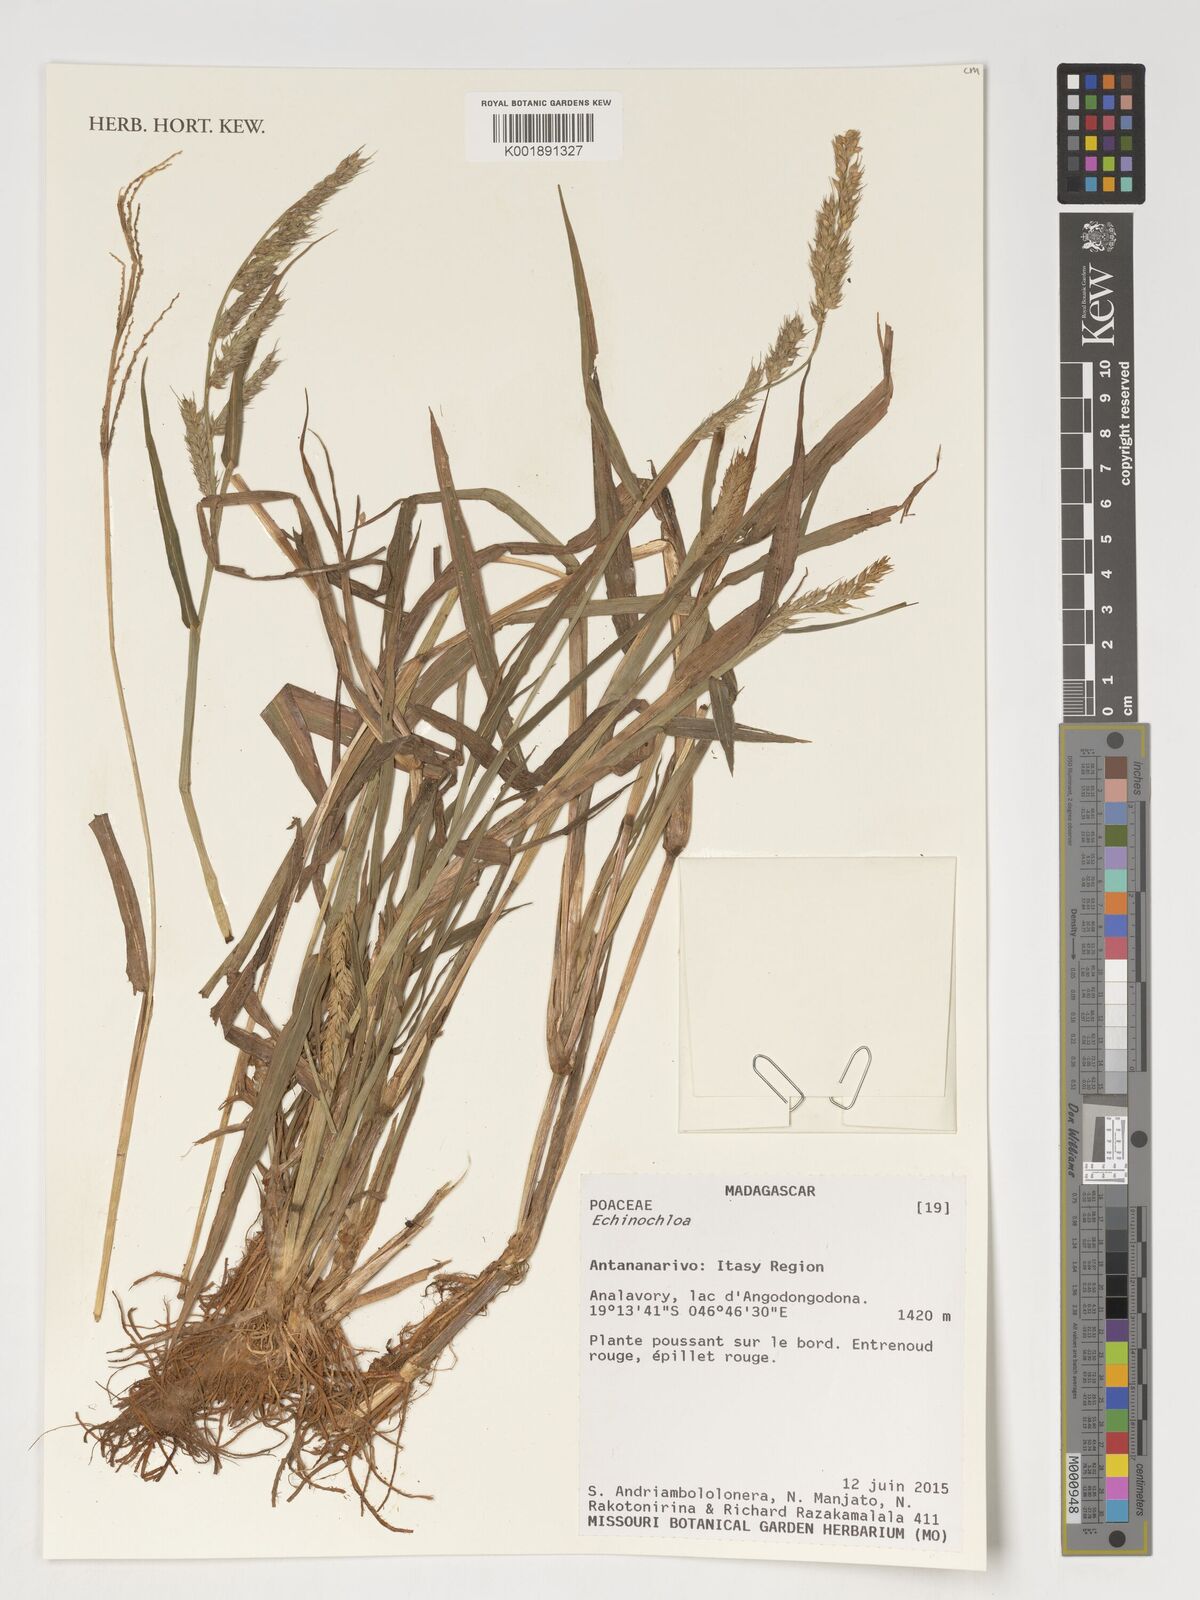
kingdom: Plantae
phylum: Tracheophyta
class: Liliopsida
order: Poales
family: Poaceae
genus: Echinochloa
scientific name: Echinochloa
